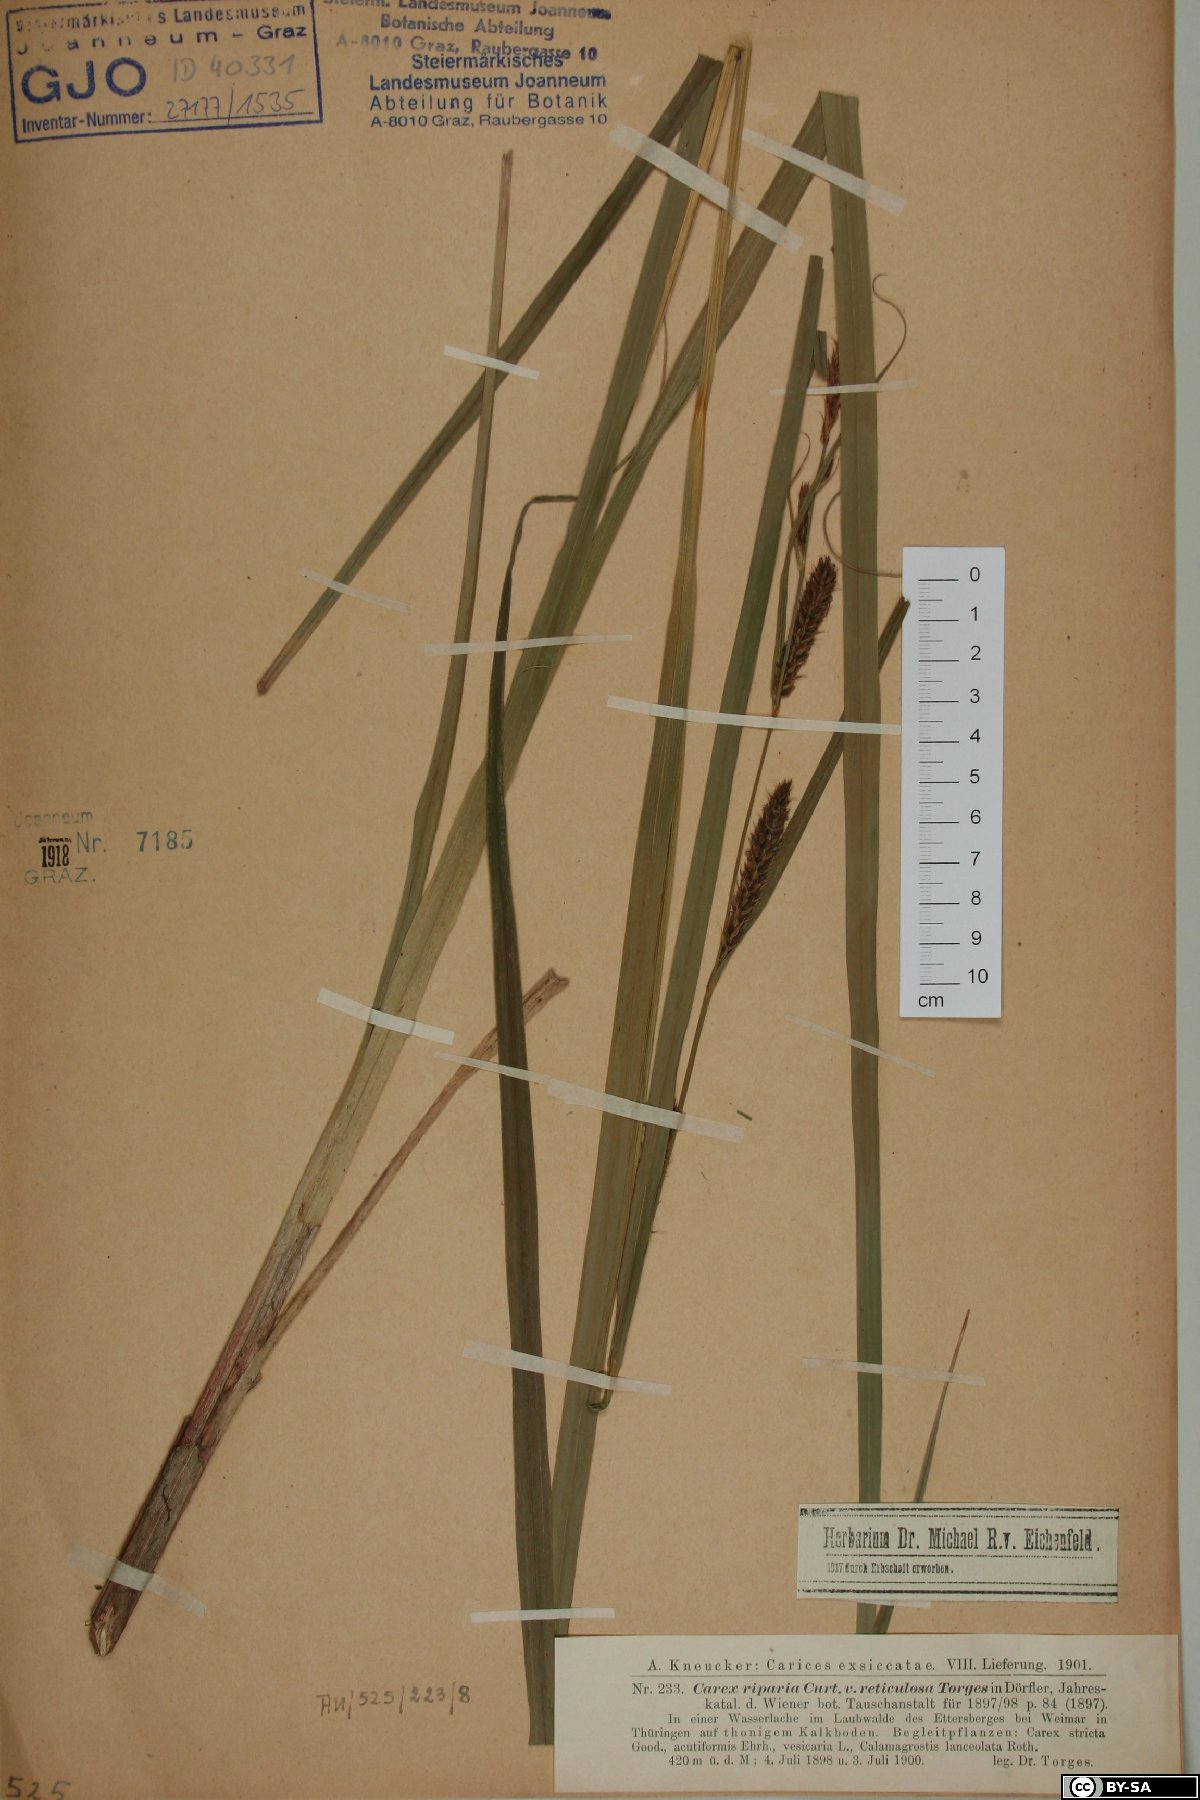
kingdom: Plantae
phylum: Tracheophyta
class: Liliopsida
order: Poales
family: Cyperaceae
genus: Carex
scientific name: Carex riparia
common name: Greater pond-sedge
